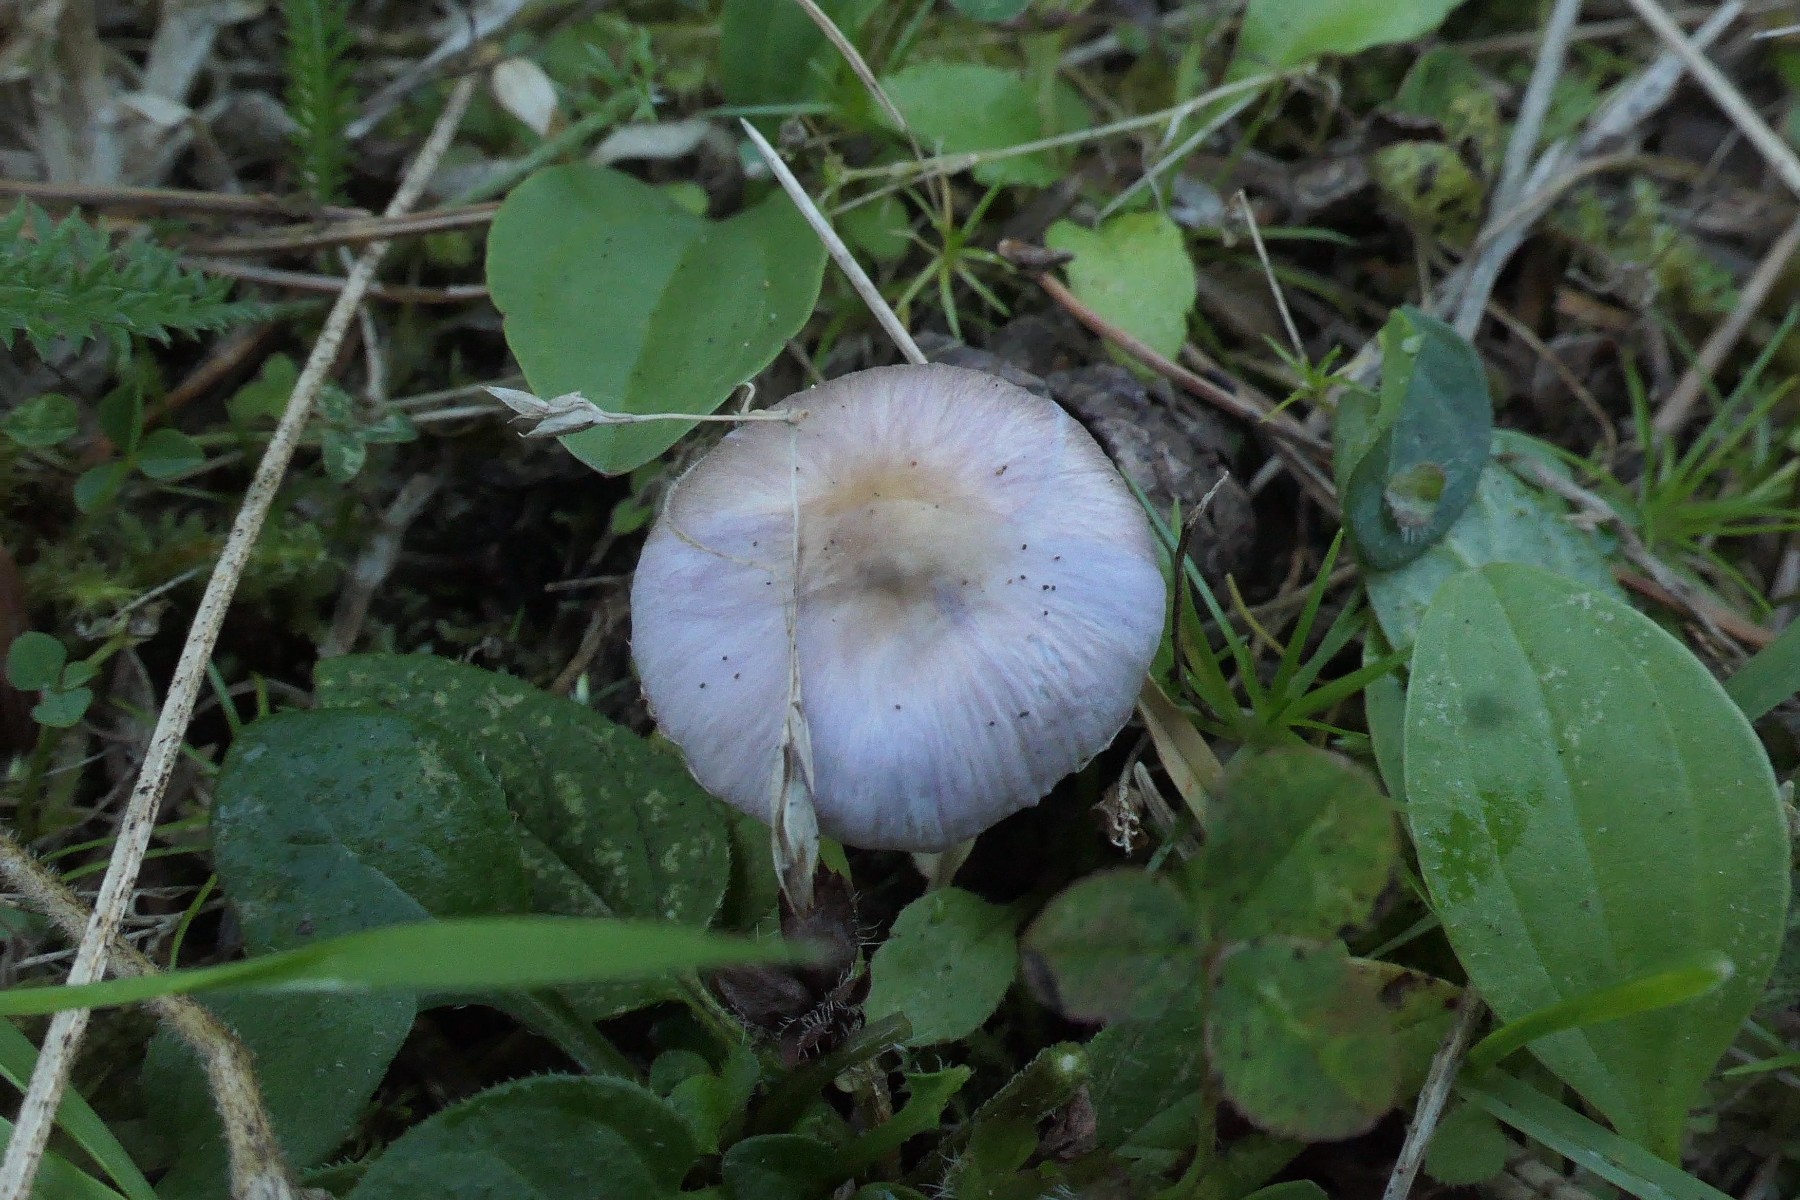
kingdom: Fungi
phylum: Basidiomycota
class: Agaricomycetes
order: Agaricales
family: Inocybaceae
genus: Inocybe
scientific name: Inocybe geophylla
